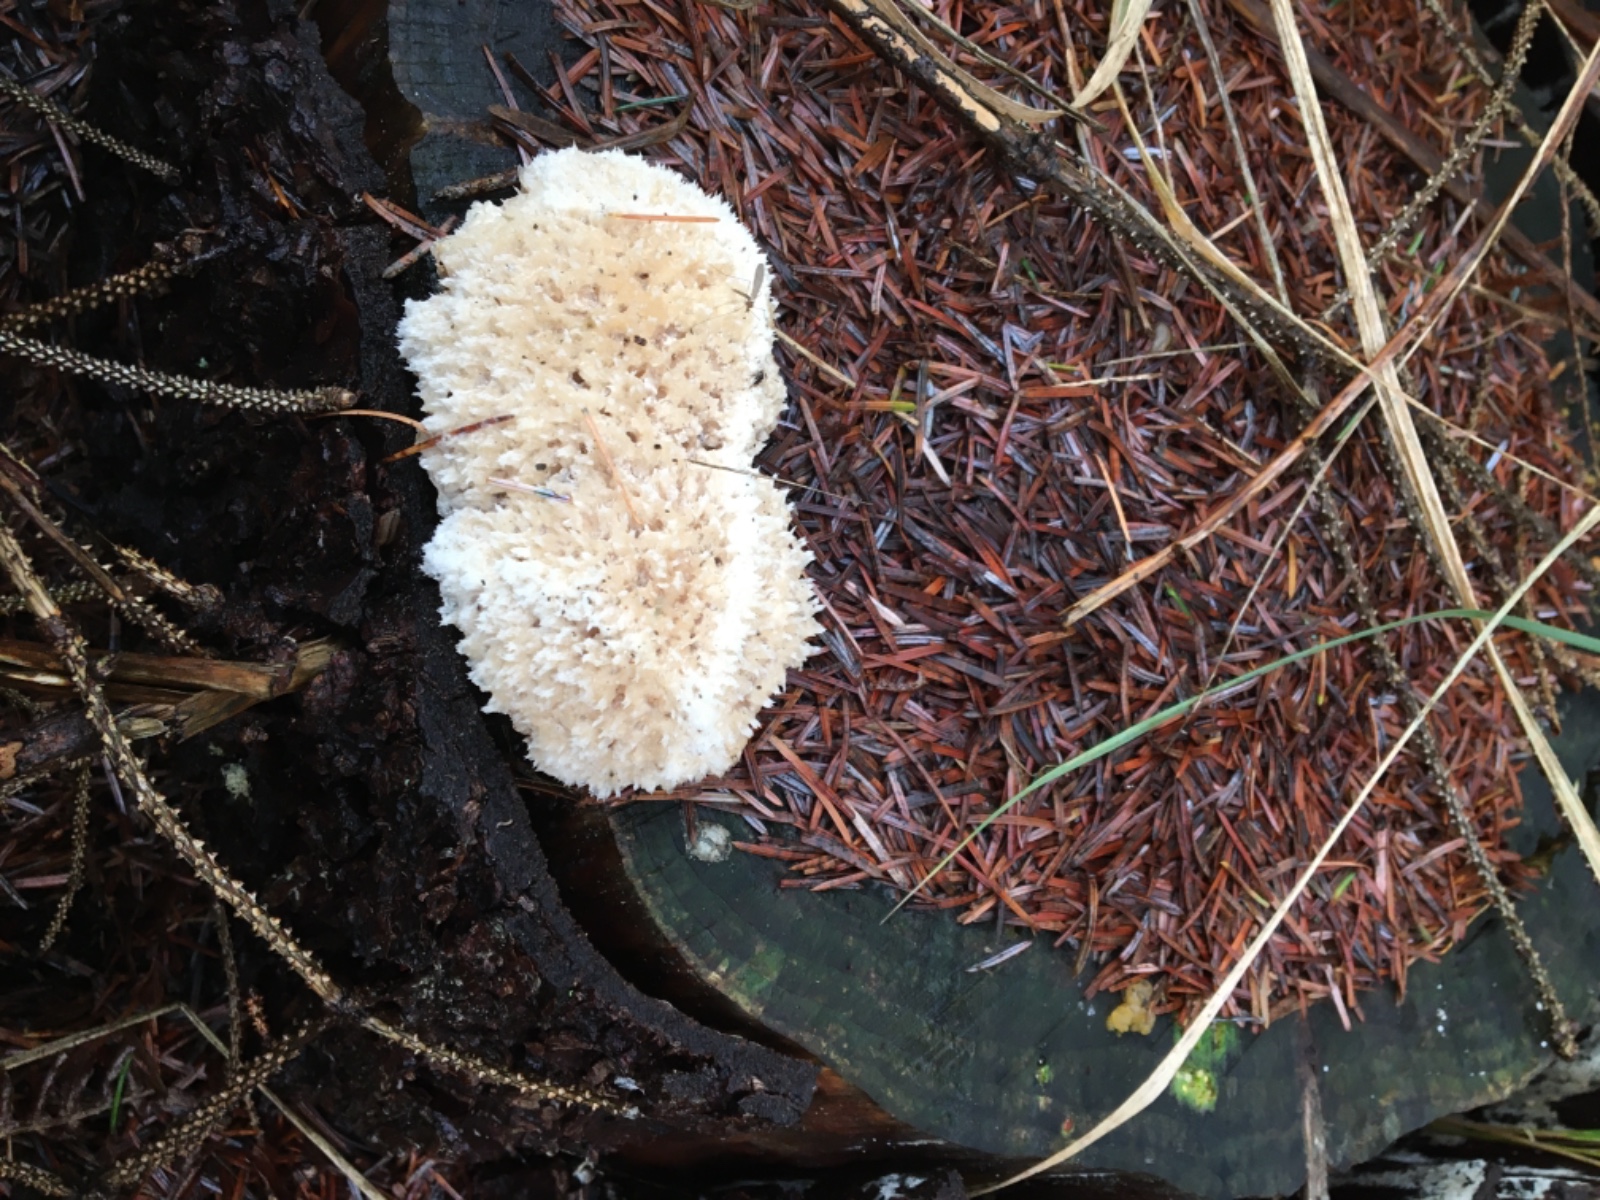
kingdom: Fungi
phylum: Basidiomycota
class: Agaricomycetes
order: Polyporales
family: Dacryobolaceae
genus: Postia
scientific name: Postia ptychogaster
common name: støvende kødporesvamp
